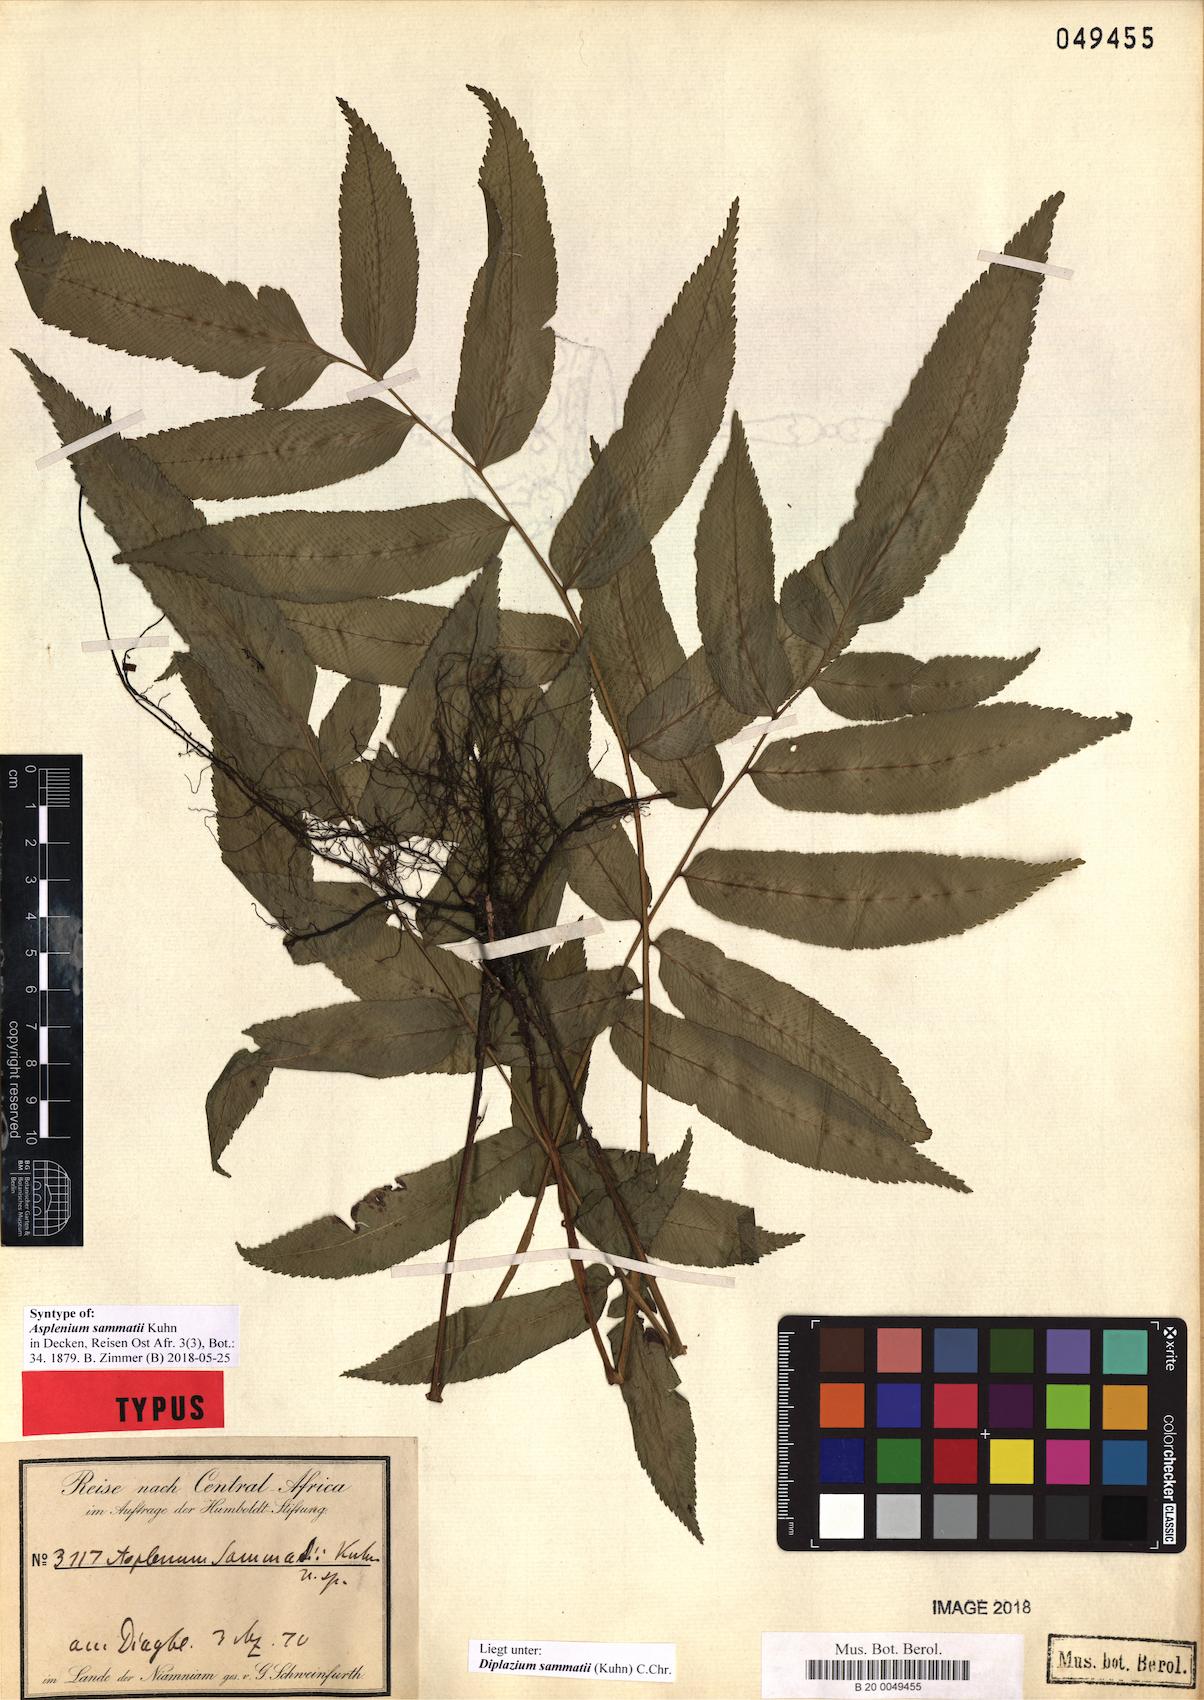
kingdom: Plantae
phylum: Tracheophyta
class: Polypodiopsida
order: Polypodiales
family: Athyriaceae
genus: Diplazium
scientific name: Diplazium sammatii
